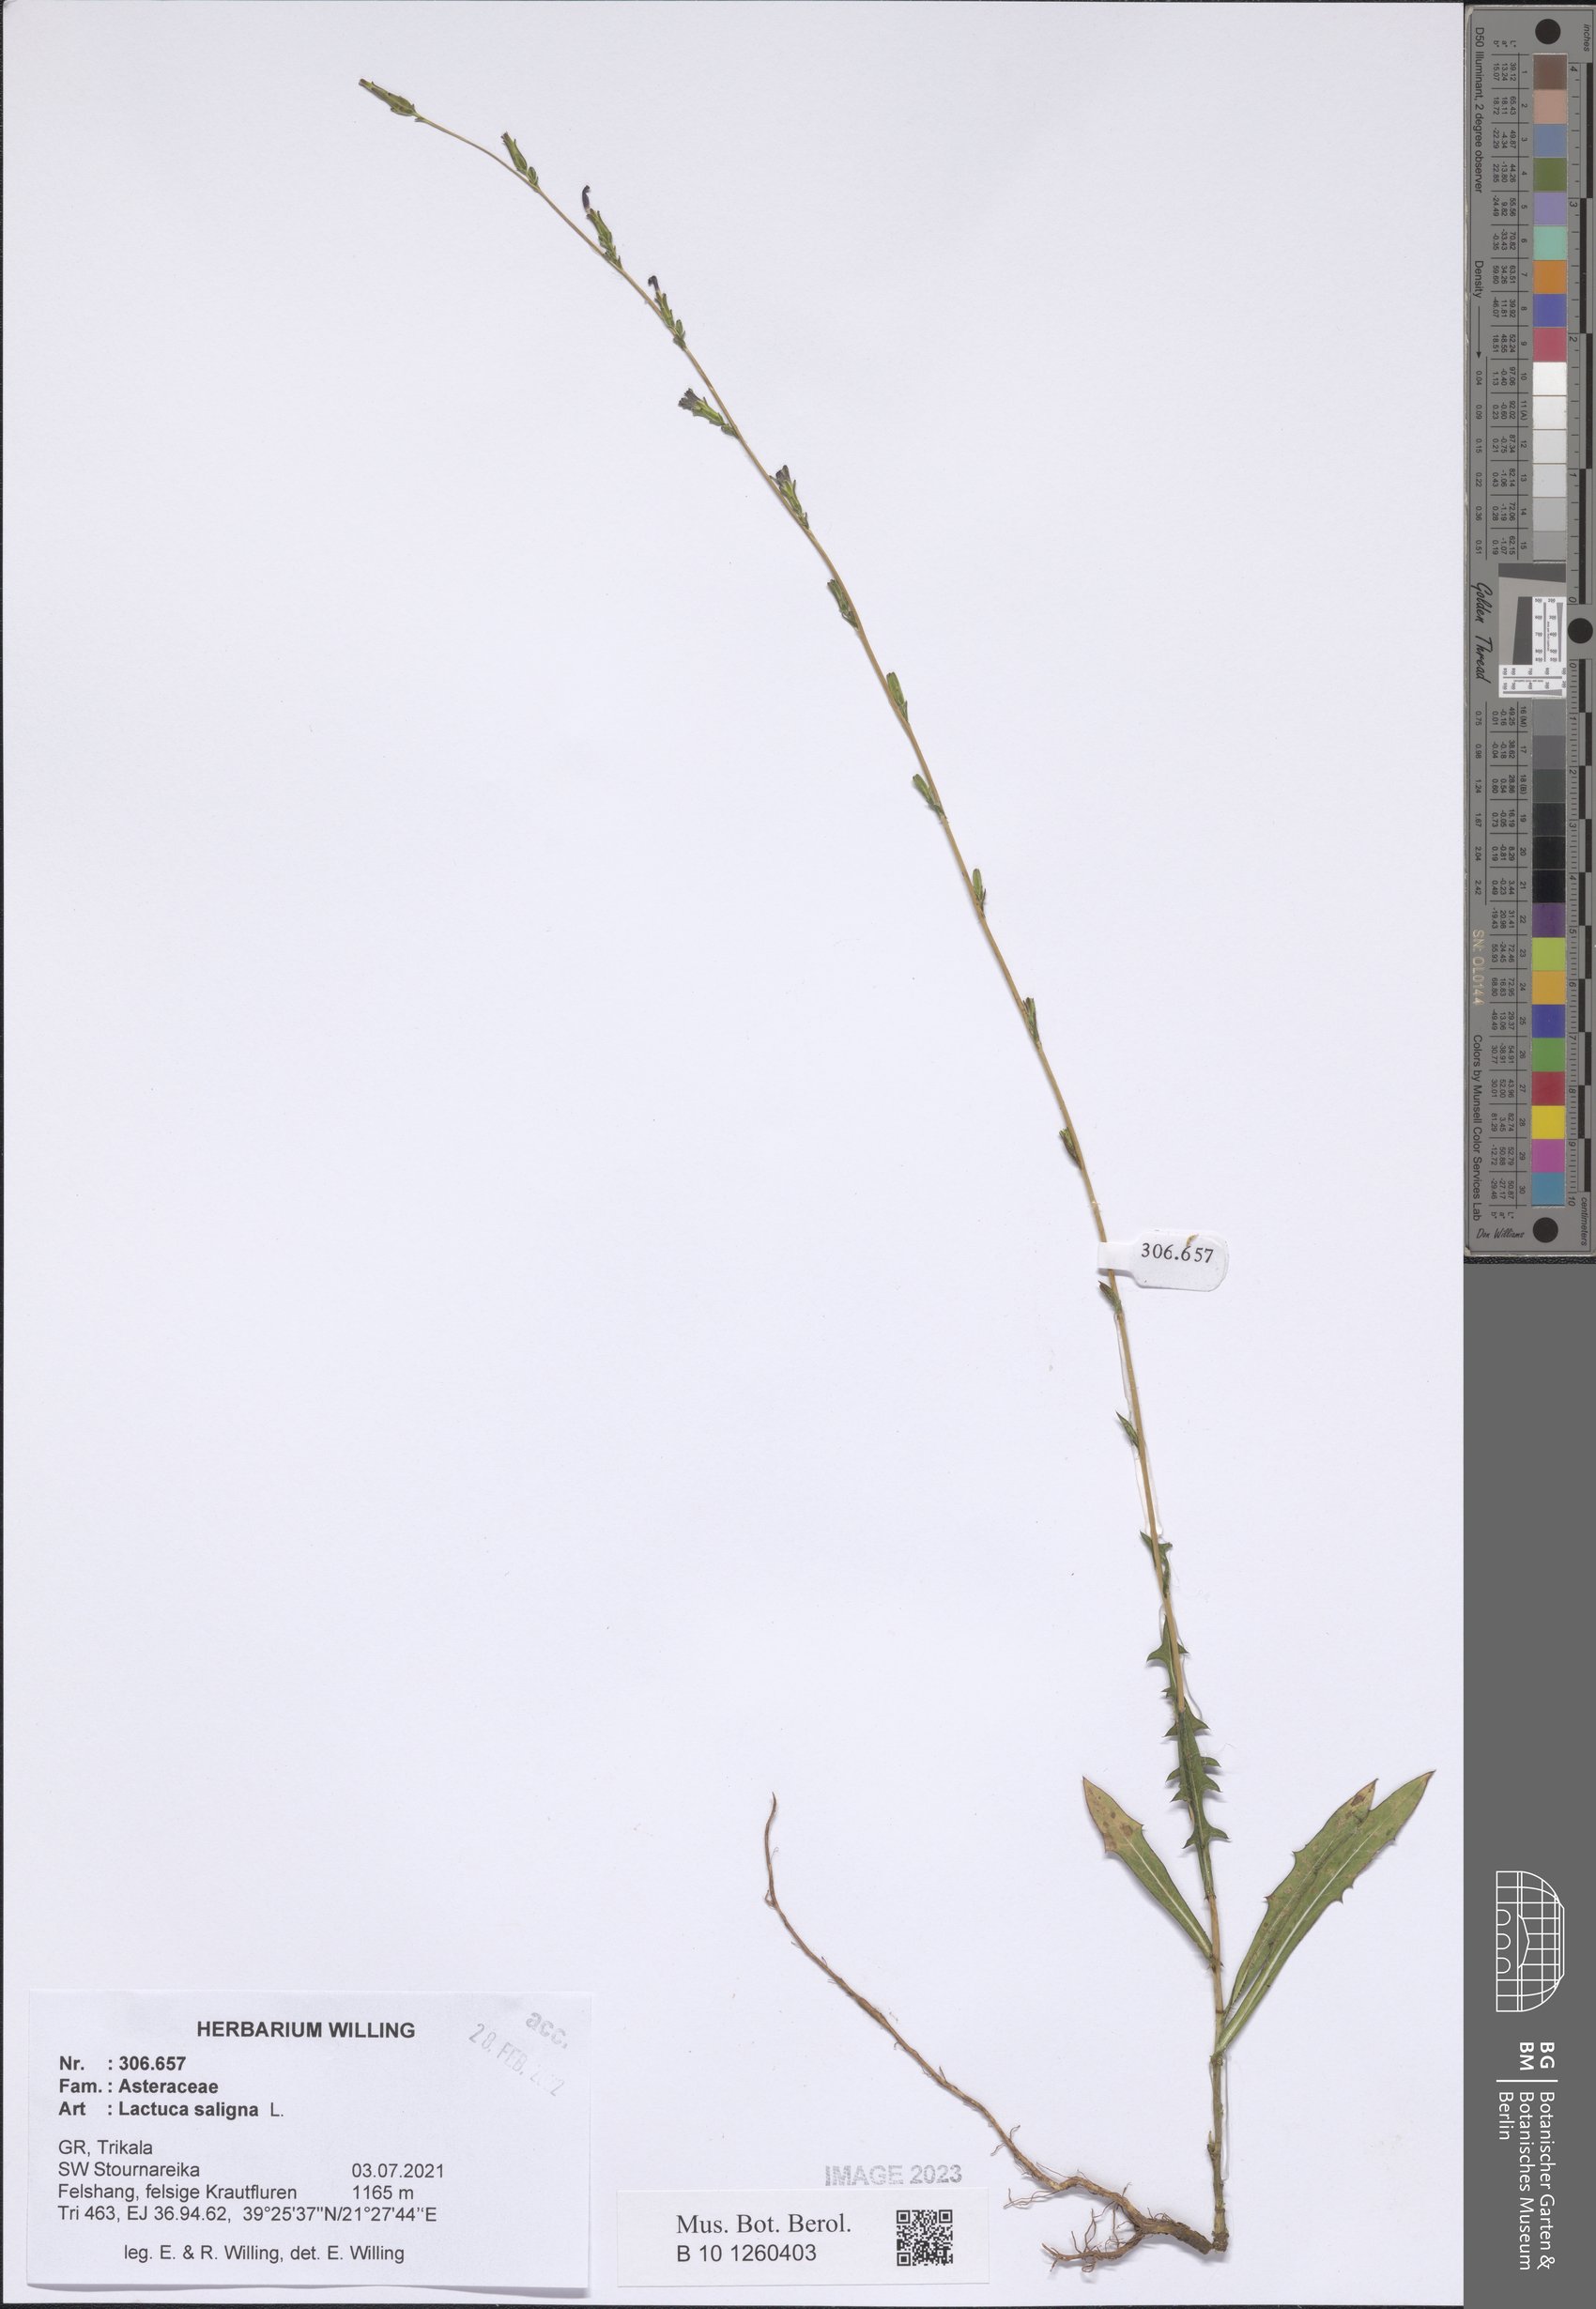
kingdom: Plantae
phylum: Tracheophyta
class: Magnoliopsida
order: Asterales
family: Asteraceae
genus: Lactuca
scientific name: Lactuca saligna
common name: Wild lettuce
